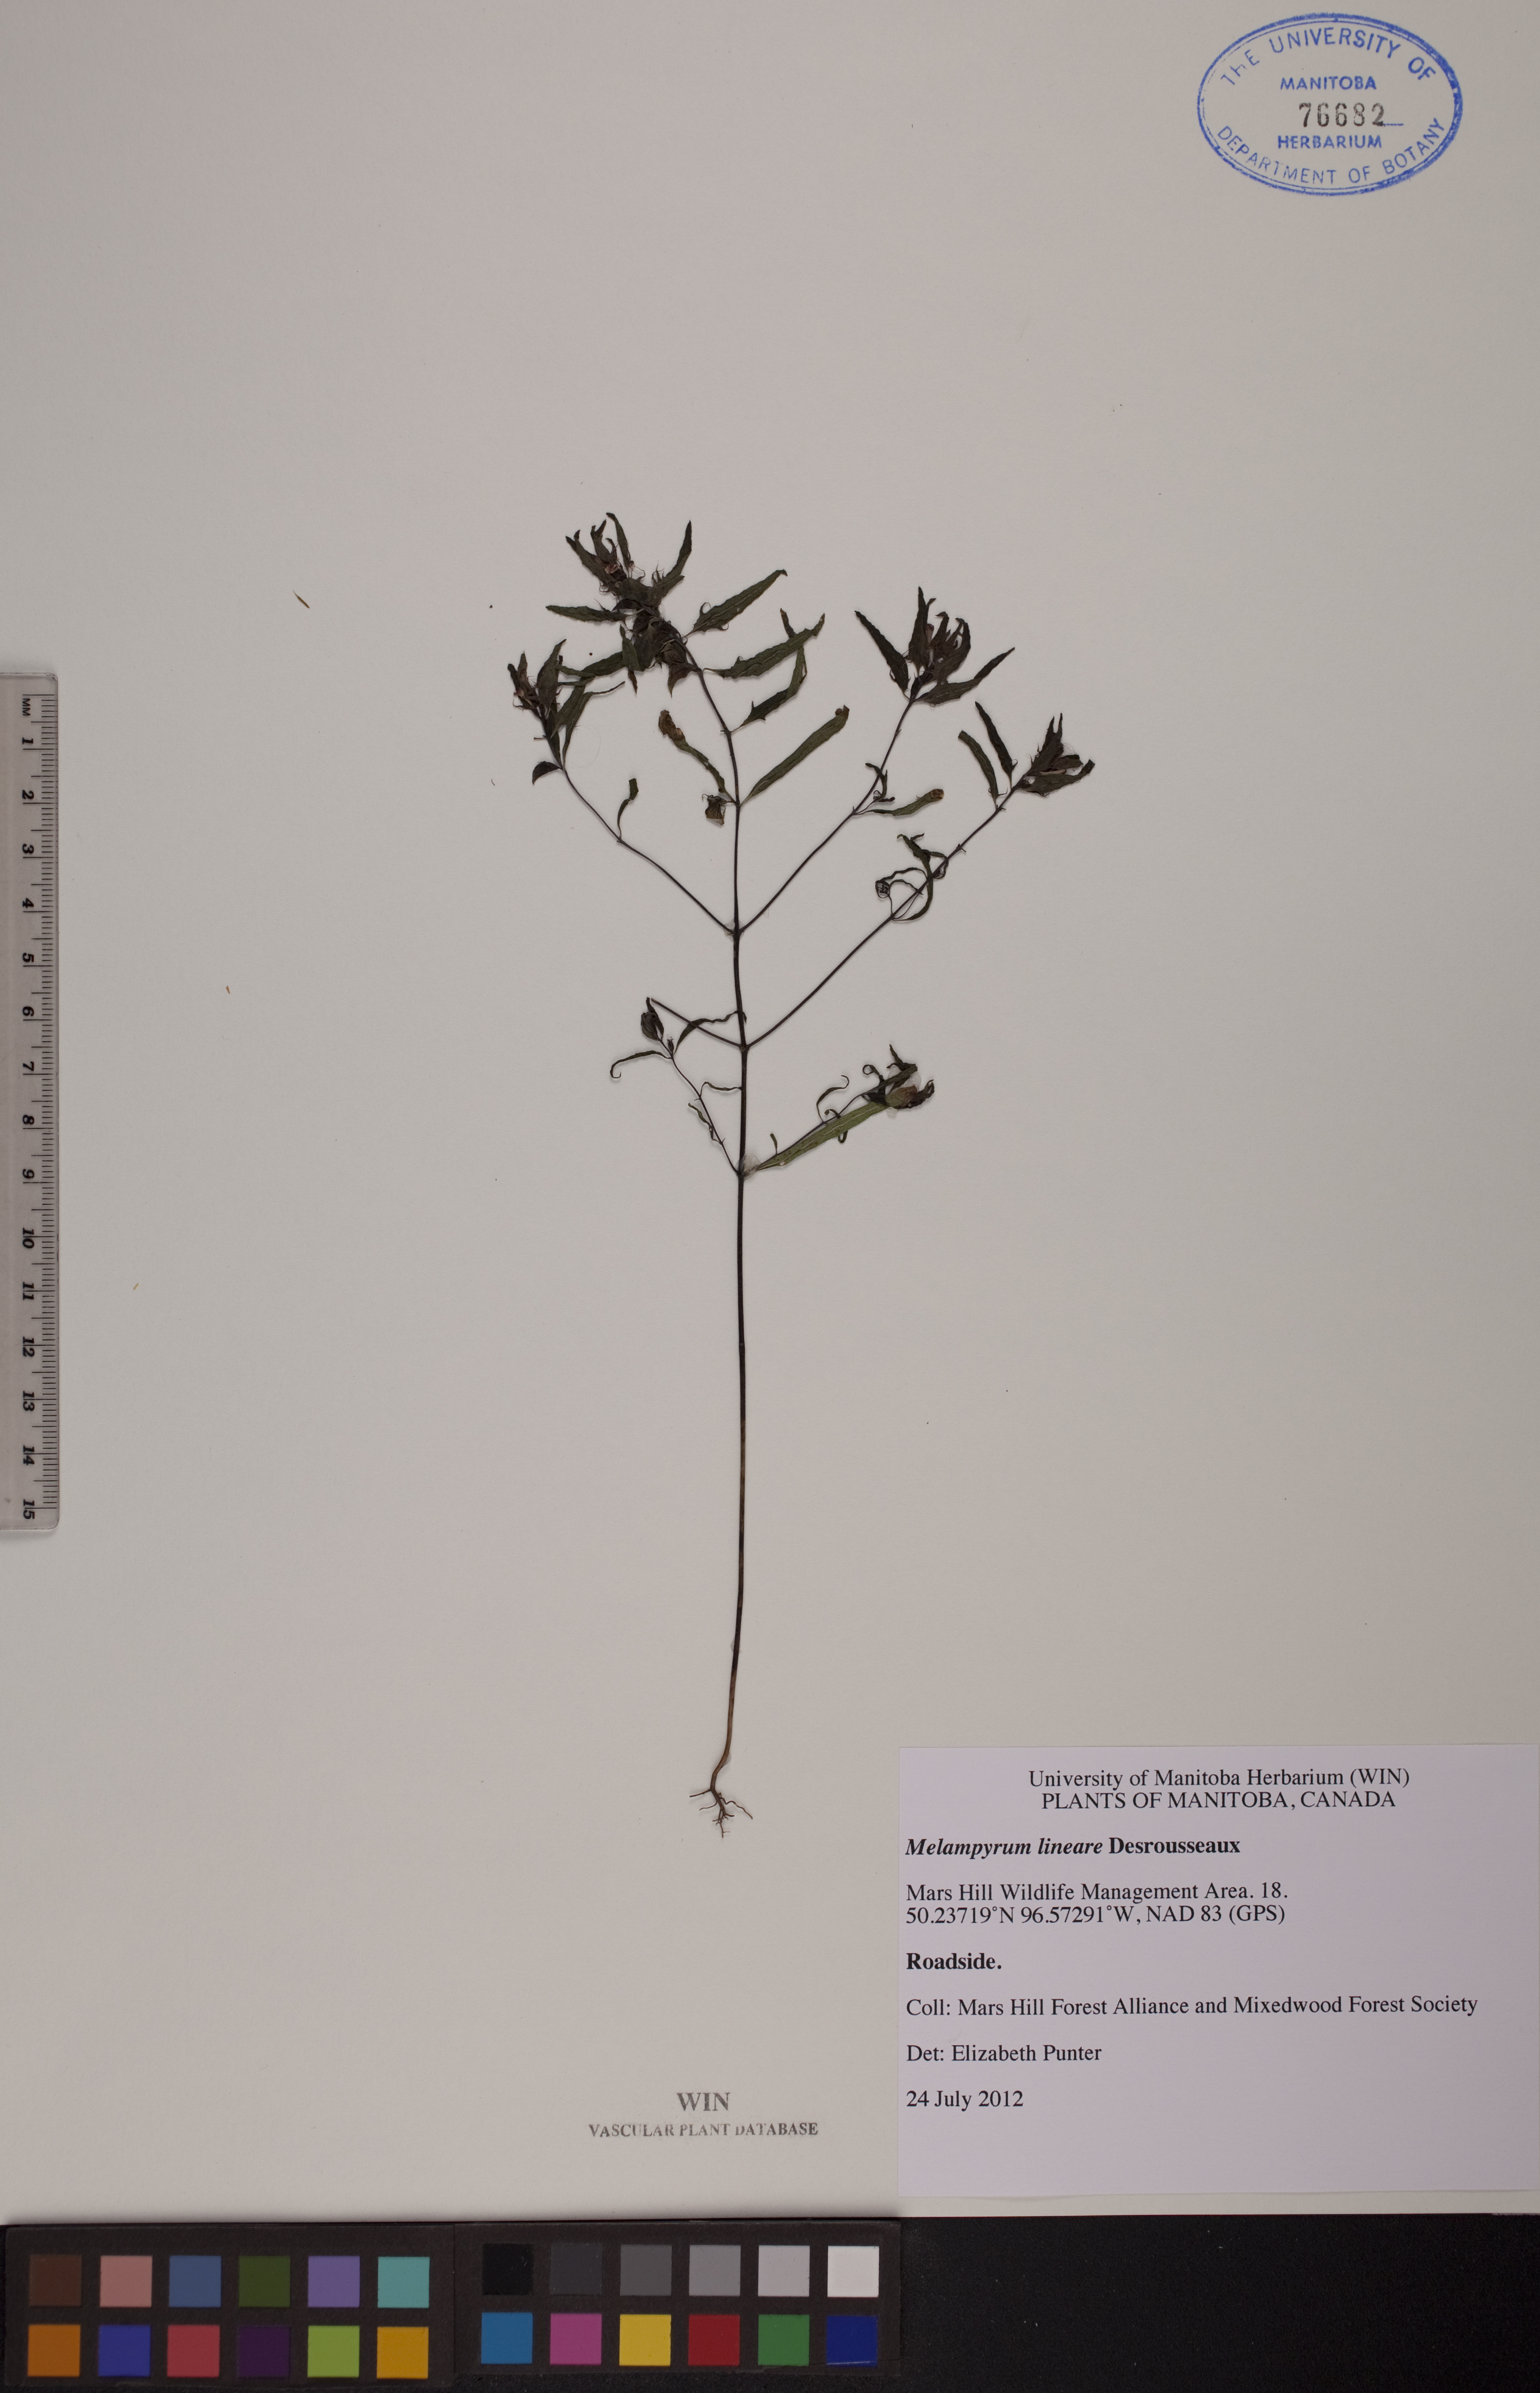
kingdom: Plantae
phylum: Tracheophyta
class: Magnoliopsida
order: Lamiales
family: Orobanchaceae
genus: Melampyrum
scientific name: Melampyrum lineare
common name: American cow-wheat
